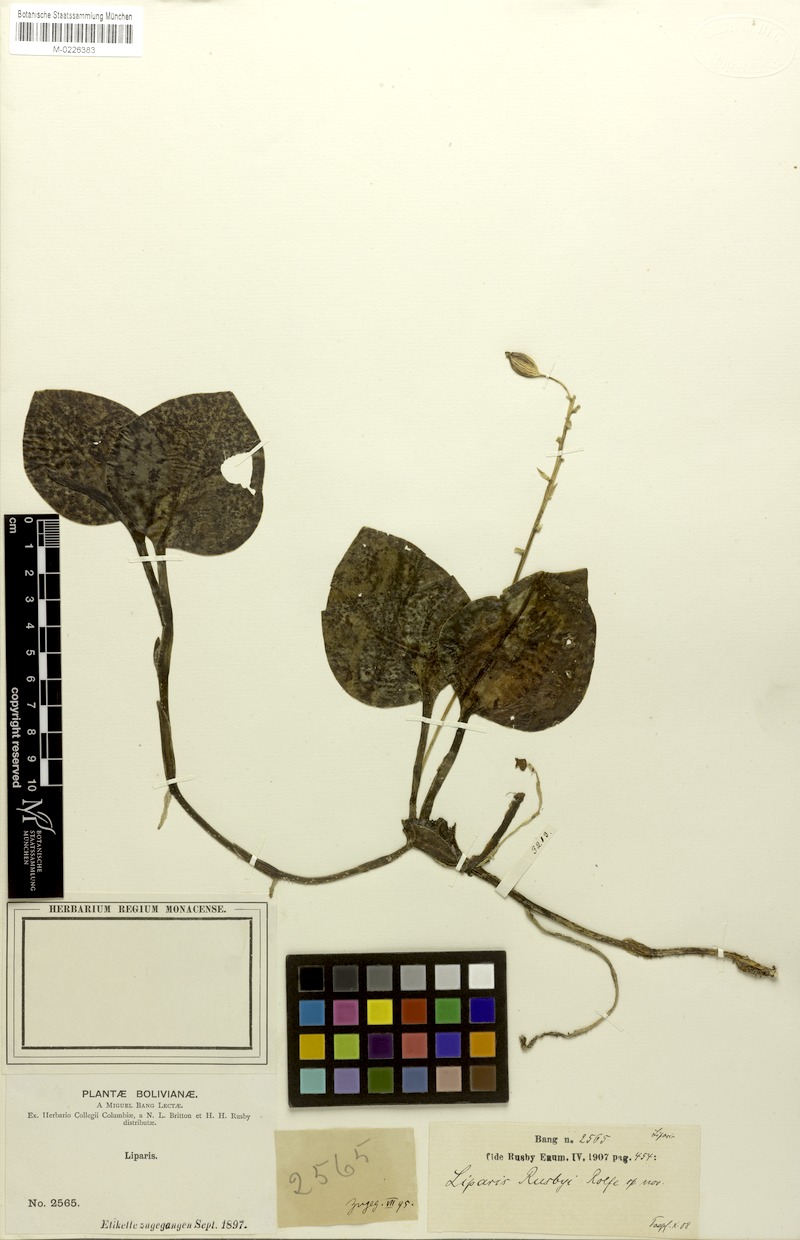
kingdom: Plantae
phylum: Tracheophyta
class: Liliopsida
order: Asparagales
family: Orchidaceae
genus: Liparis
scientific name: Liparis rusbyi
